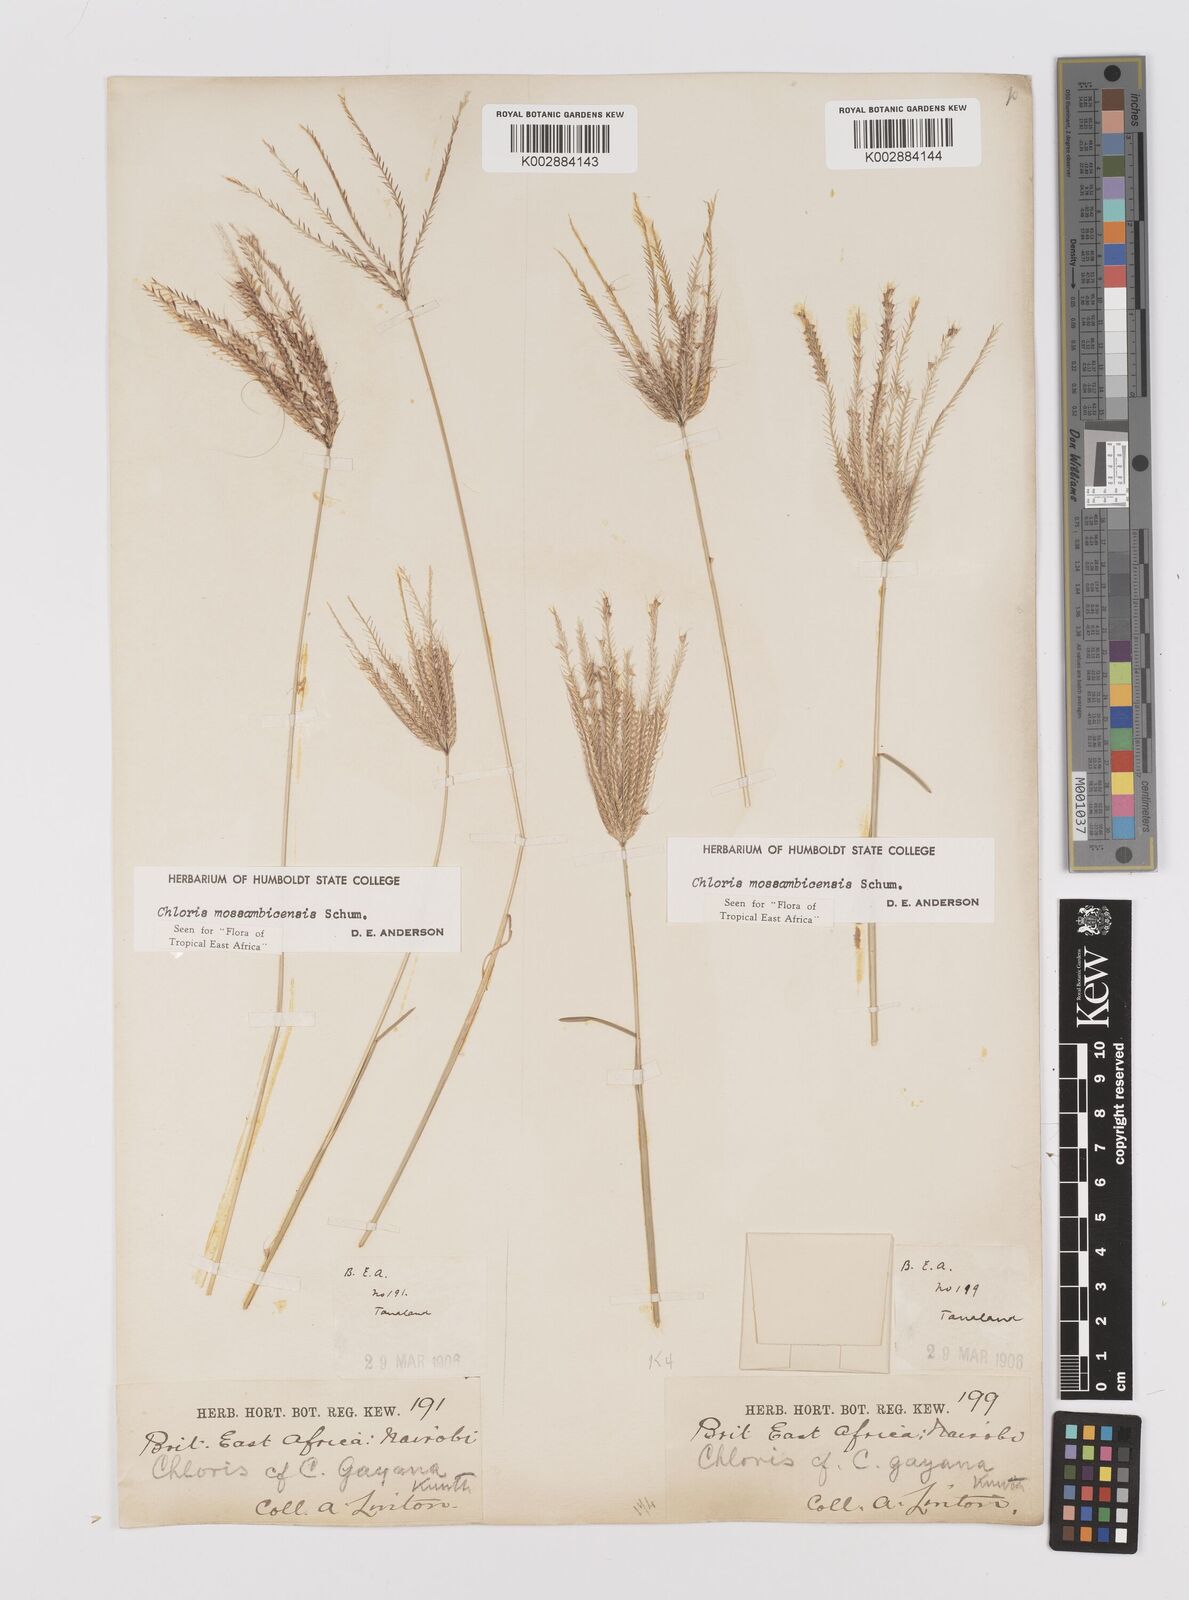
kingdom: Plantae
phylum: Tracheophyta
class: Liliopsida
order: Poales
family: Poaceae
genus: Chloris
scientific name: Chloris mossambicensis
